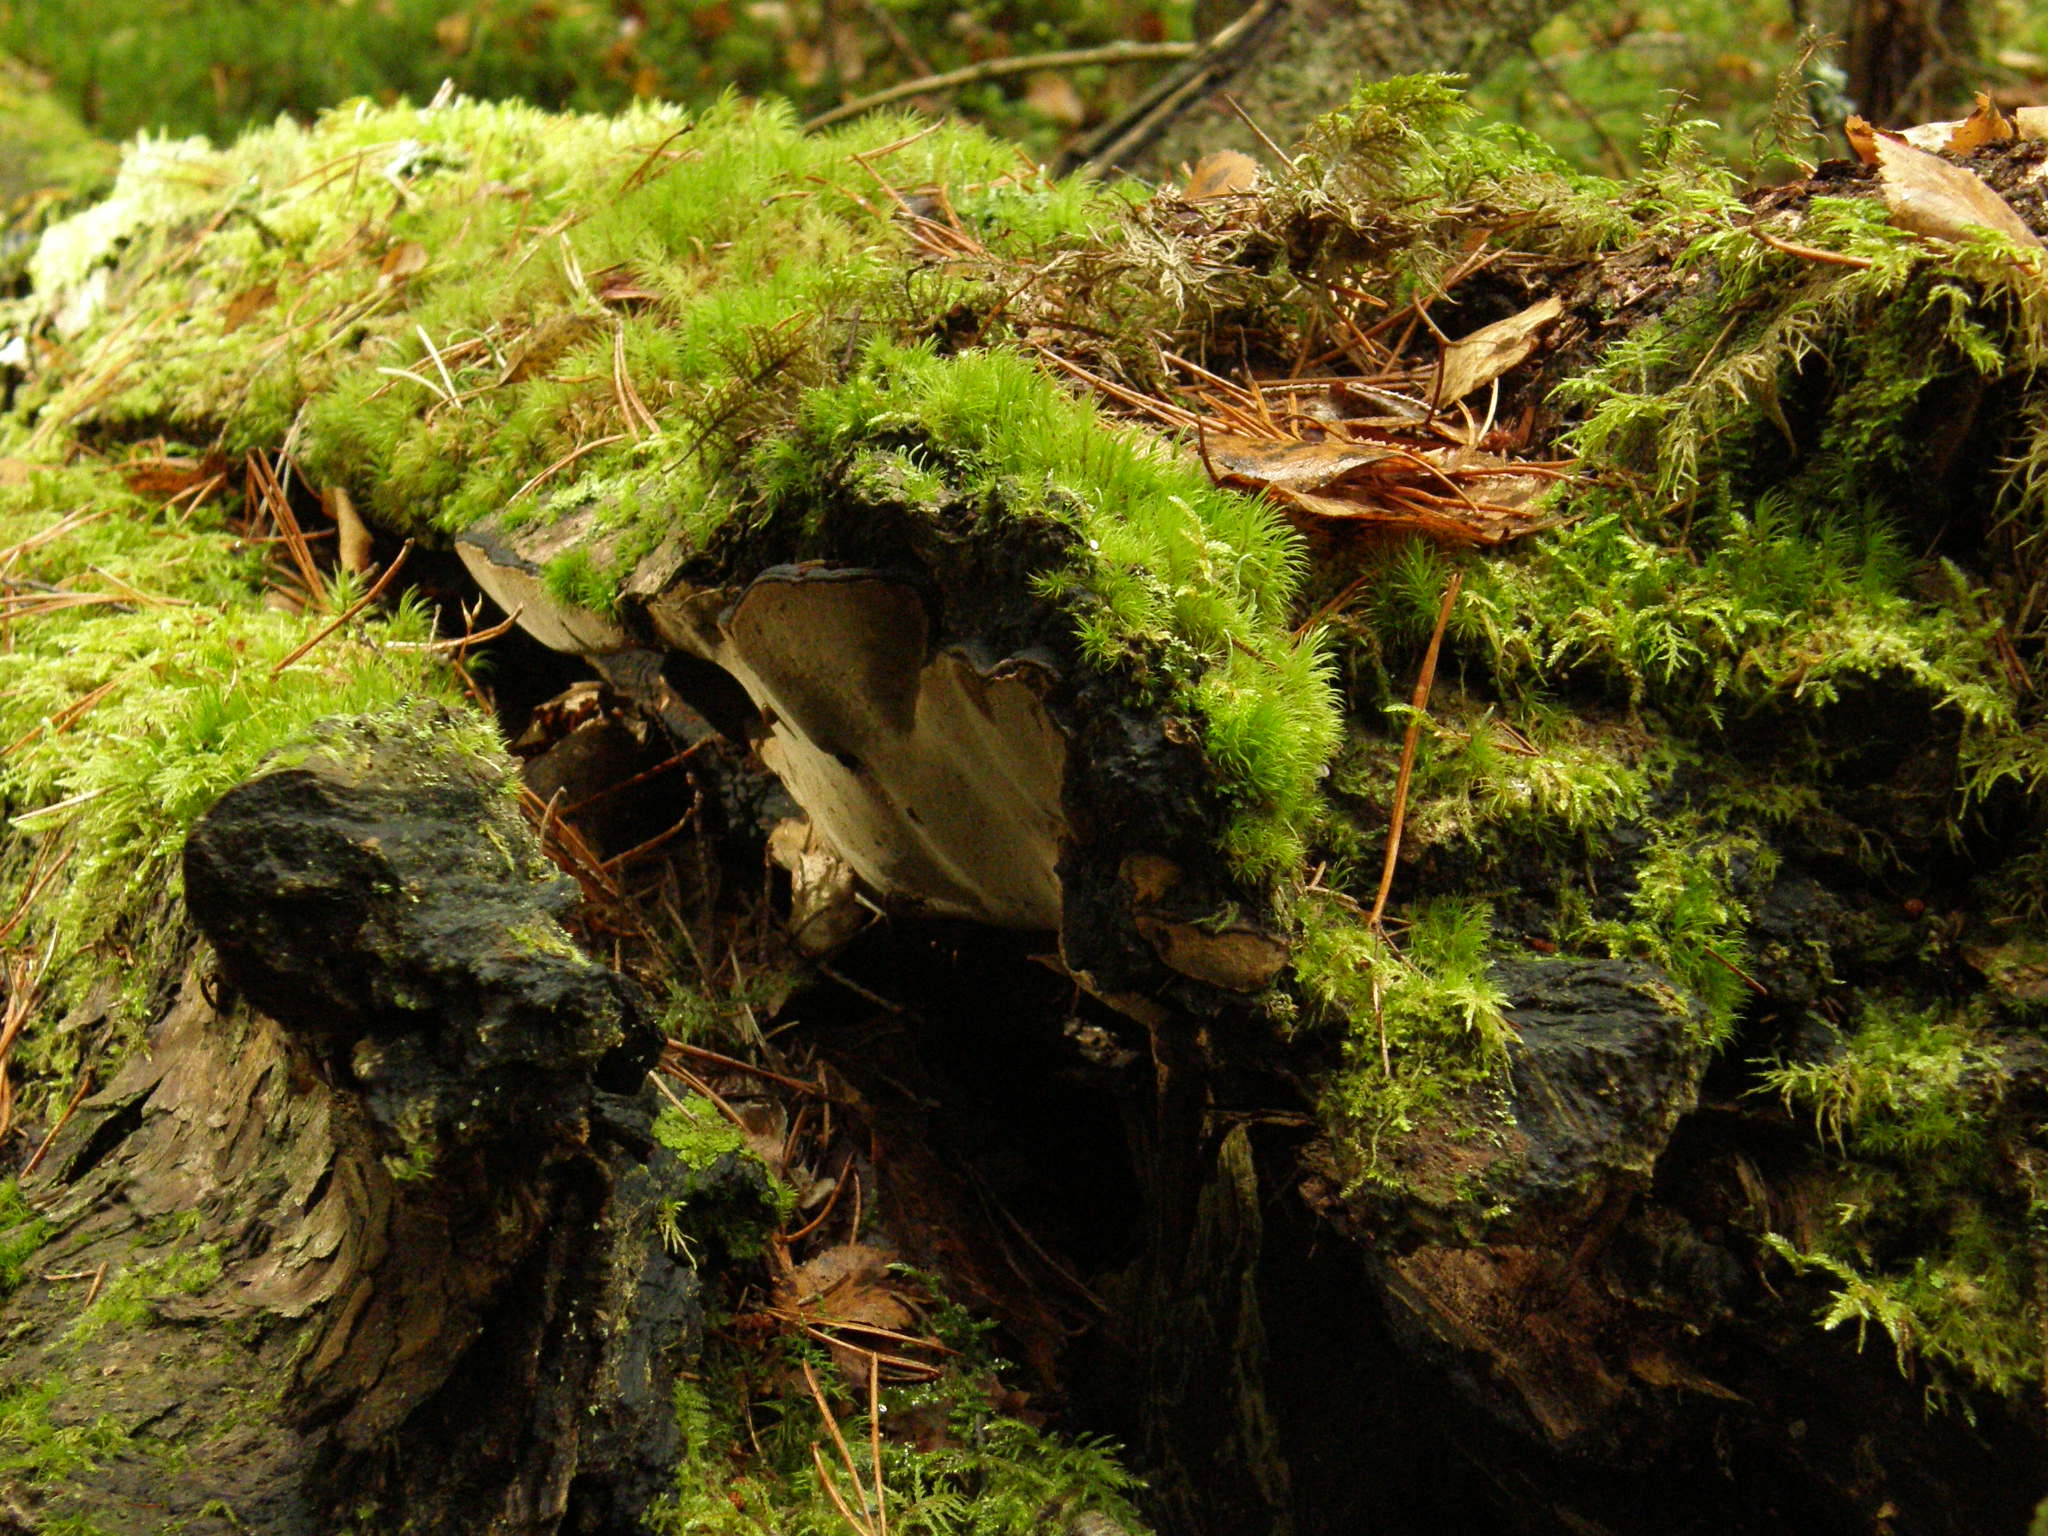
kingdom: Fungi
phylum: Basidiomycota
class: Agaricomycetes
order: Hymenochaetales
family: Hymenochaetaceae
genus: Phellinus
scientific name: Phellinus lundellii
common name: Birch bristle bracket
